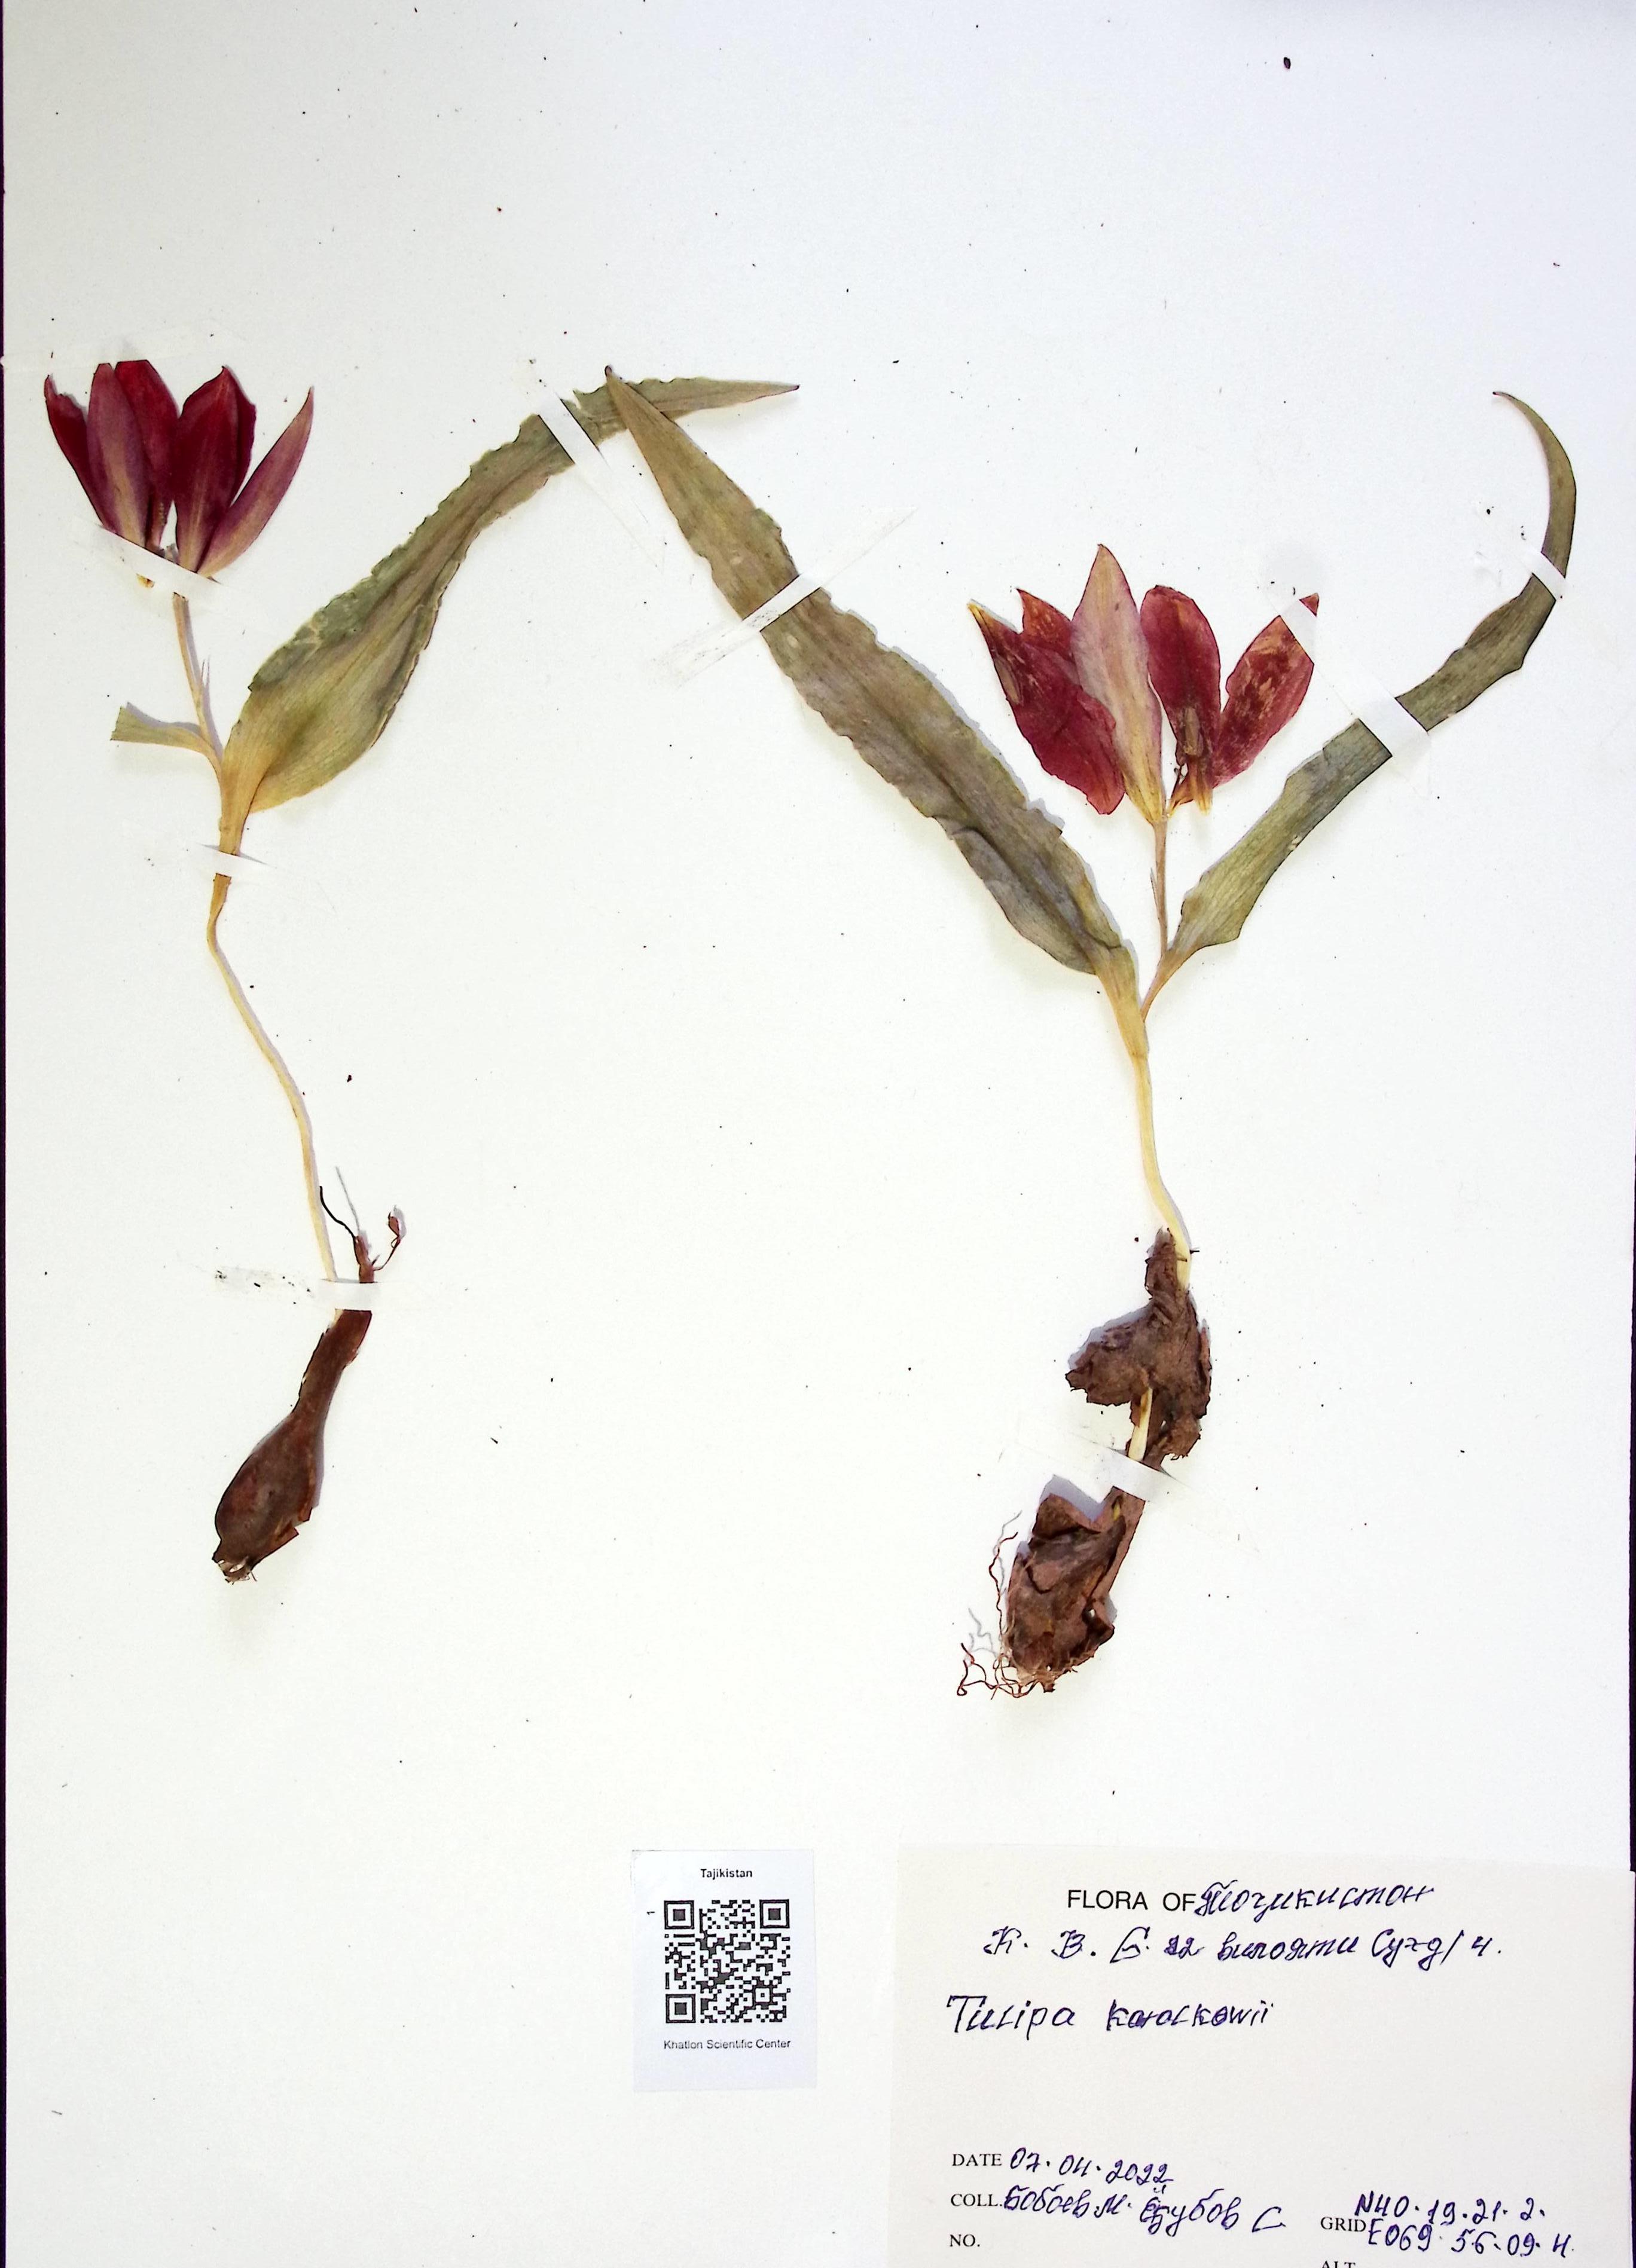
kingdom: Plantae
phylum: Tracheophyta
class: Liliopsida
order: Liliales
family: Liliaceae
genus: Tulipa
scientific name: Tulipa korolkowii
